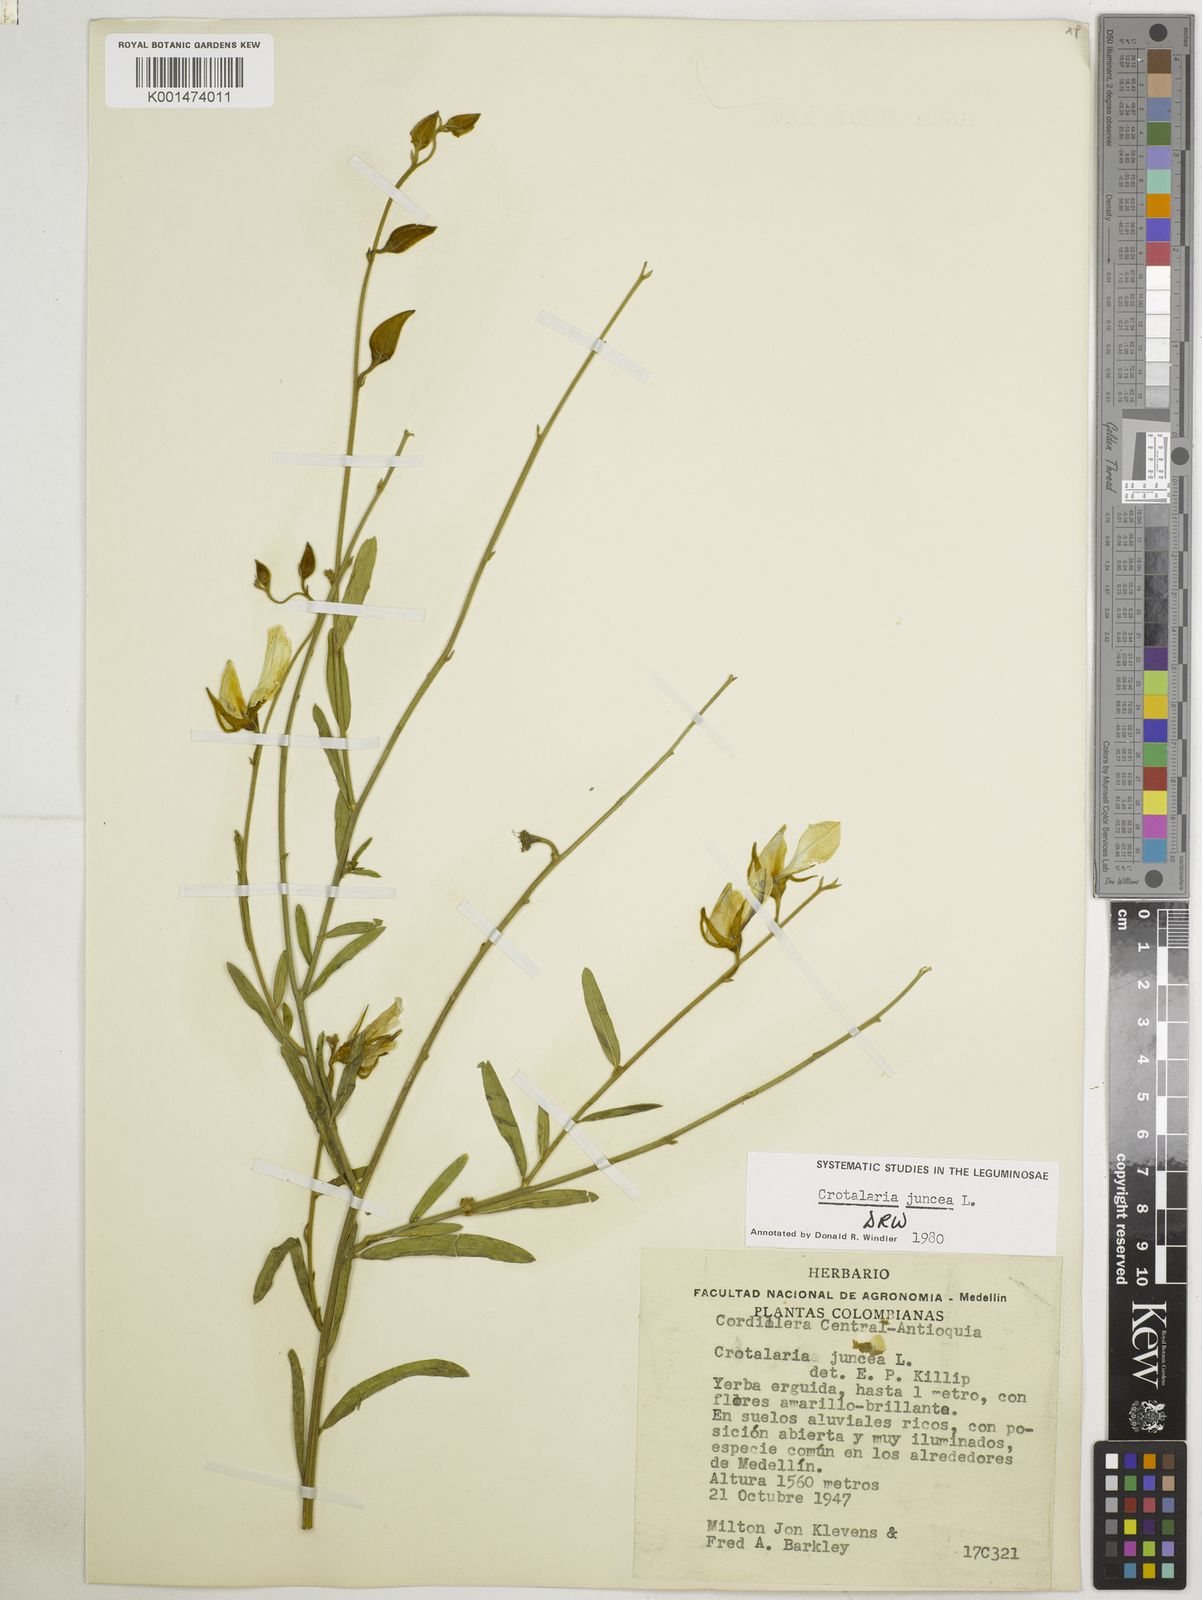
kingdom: Plantae
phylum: Tracheophyta
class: Magnoliopsida
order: Fabales
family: Fabaceae
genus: Crotalaria
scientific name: Crotalaria juncea
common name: Sunn hemp
